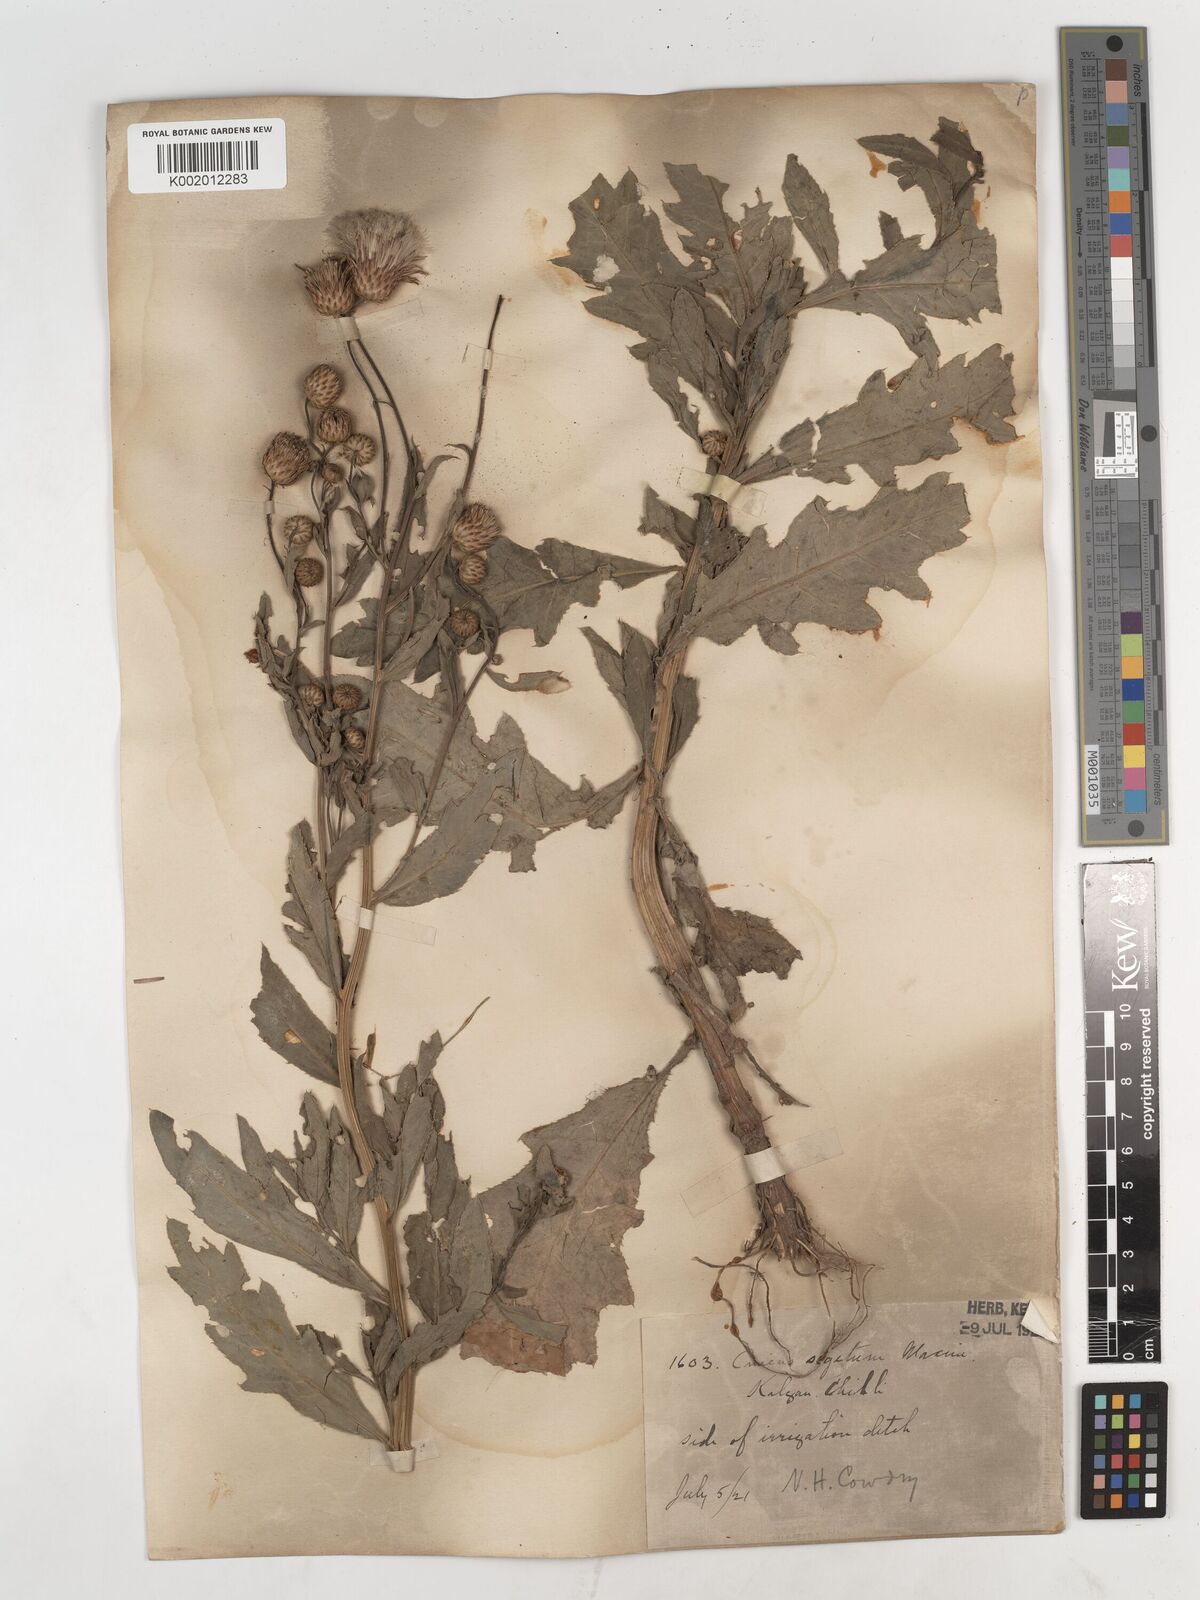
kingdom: Plantae
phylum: Tracheophyta
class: Magnoliopsida
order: Asterales
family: Asteraceae
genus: Cirsium
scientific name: Cirsium arvense
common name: Creeping thistle
